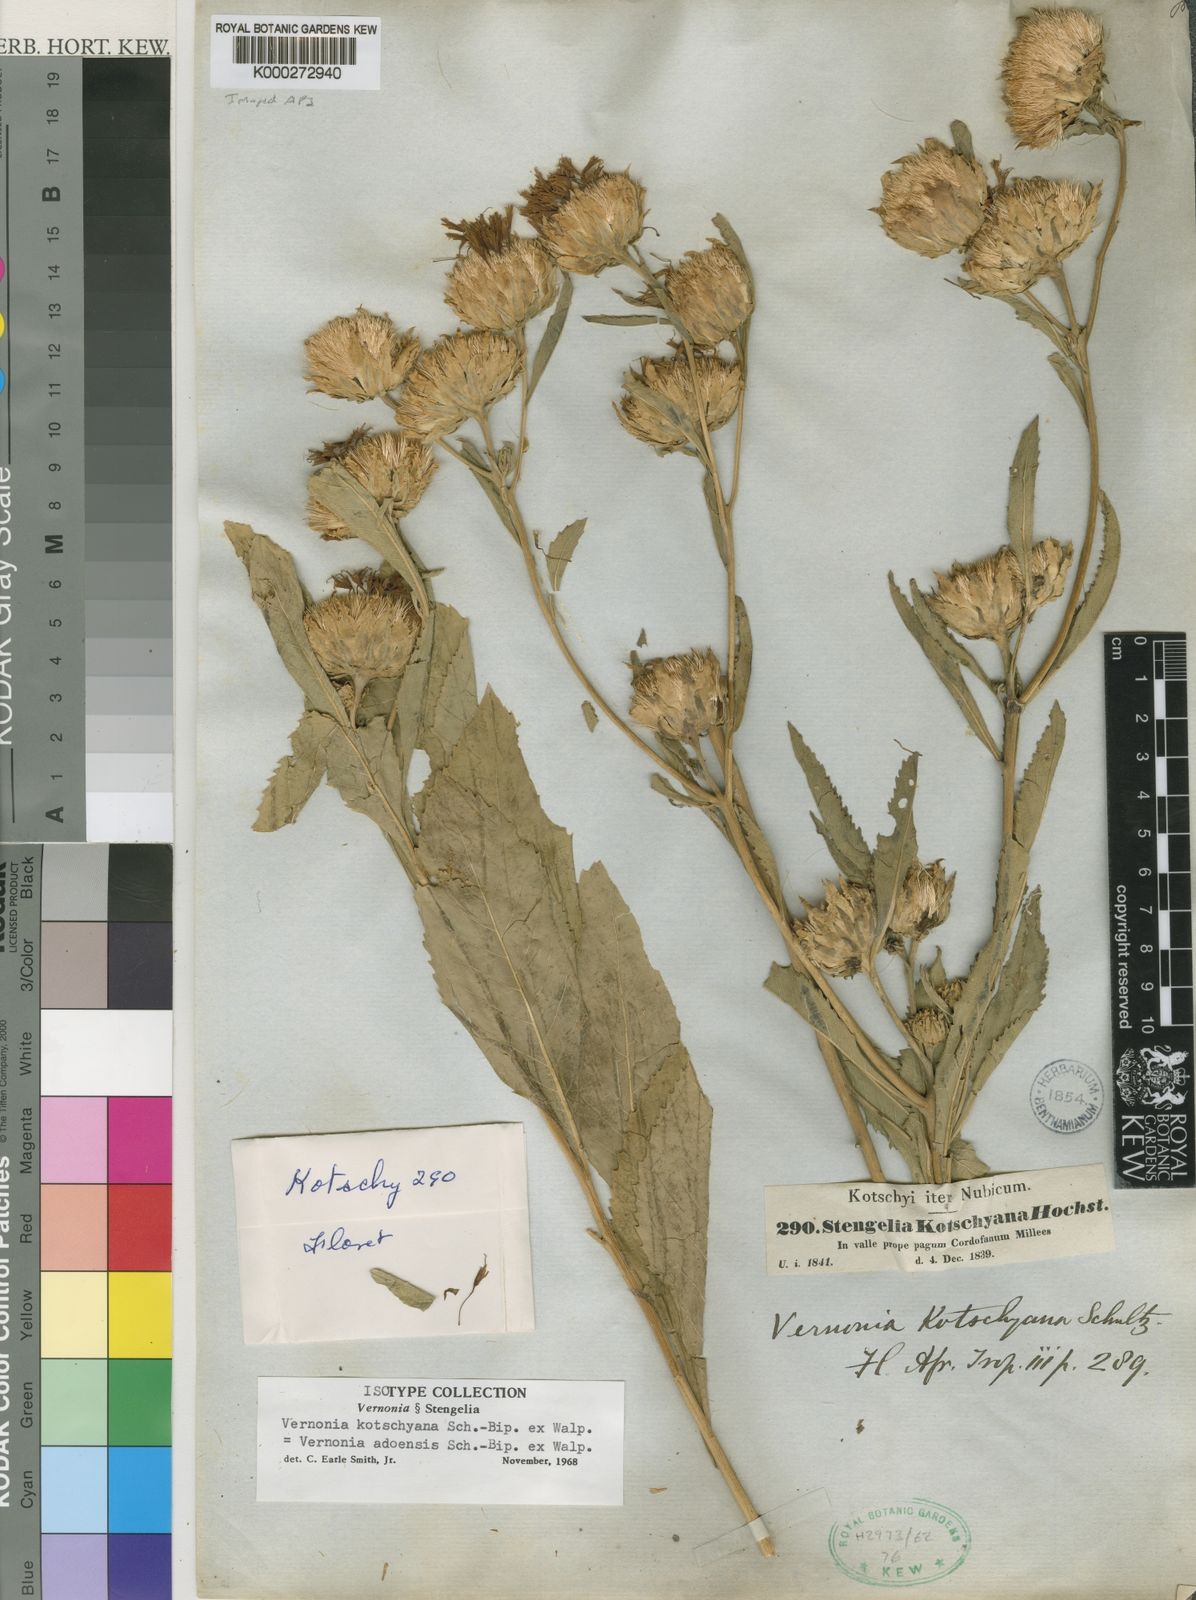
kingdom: Plantae
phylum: Tracheophyta
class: Magnoliopsida
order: Asterales
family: Asteraceae
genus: Baccharoides
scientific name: Baccharoides adoensis
